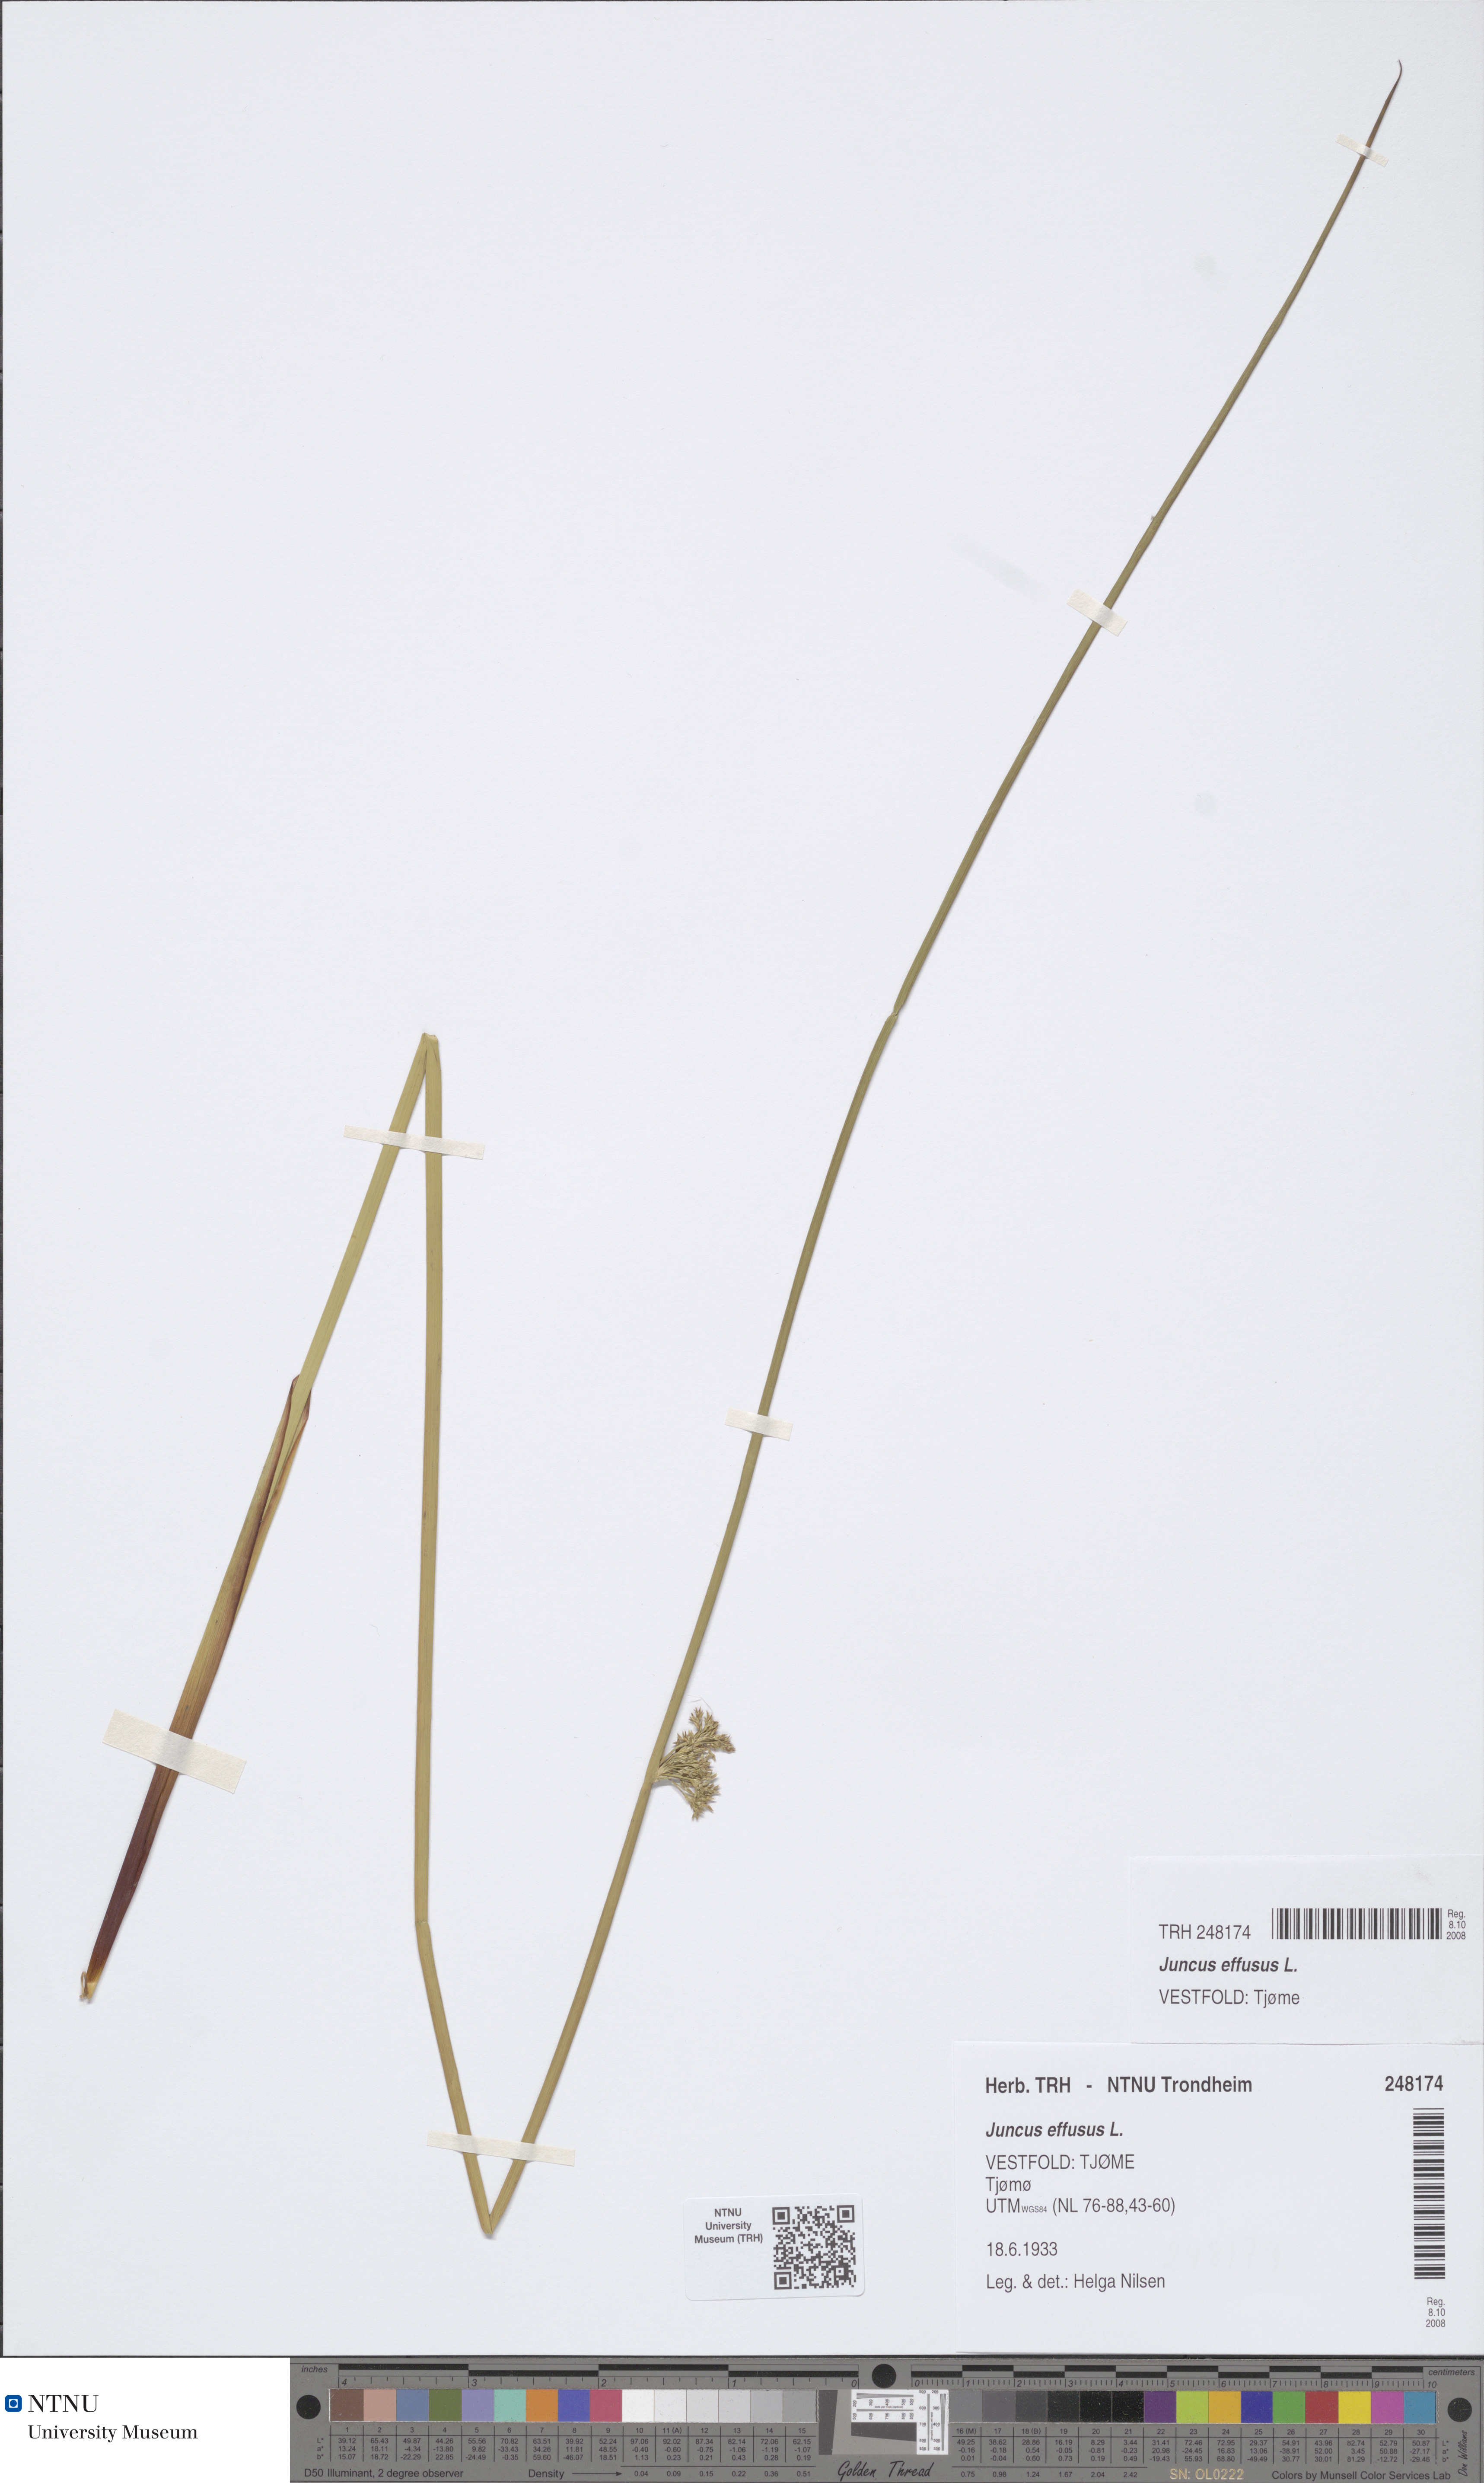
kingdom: Plantae
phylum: Tracheophyta
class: Liliopsida
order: Poales
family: Juncaceae
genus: Juncus
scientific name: Juncus effusus
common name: Soft rush
